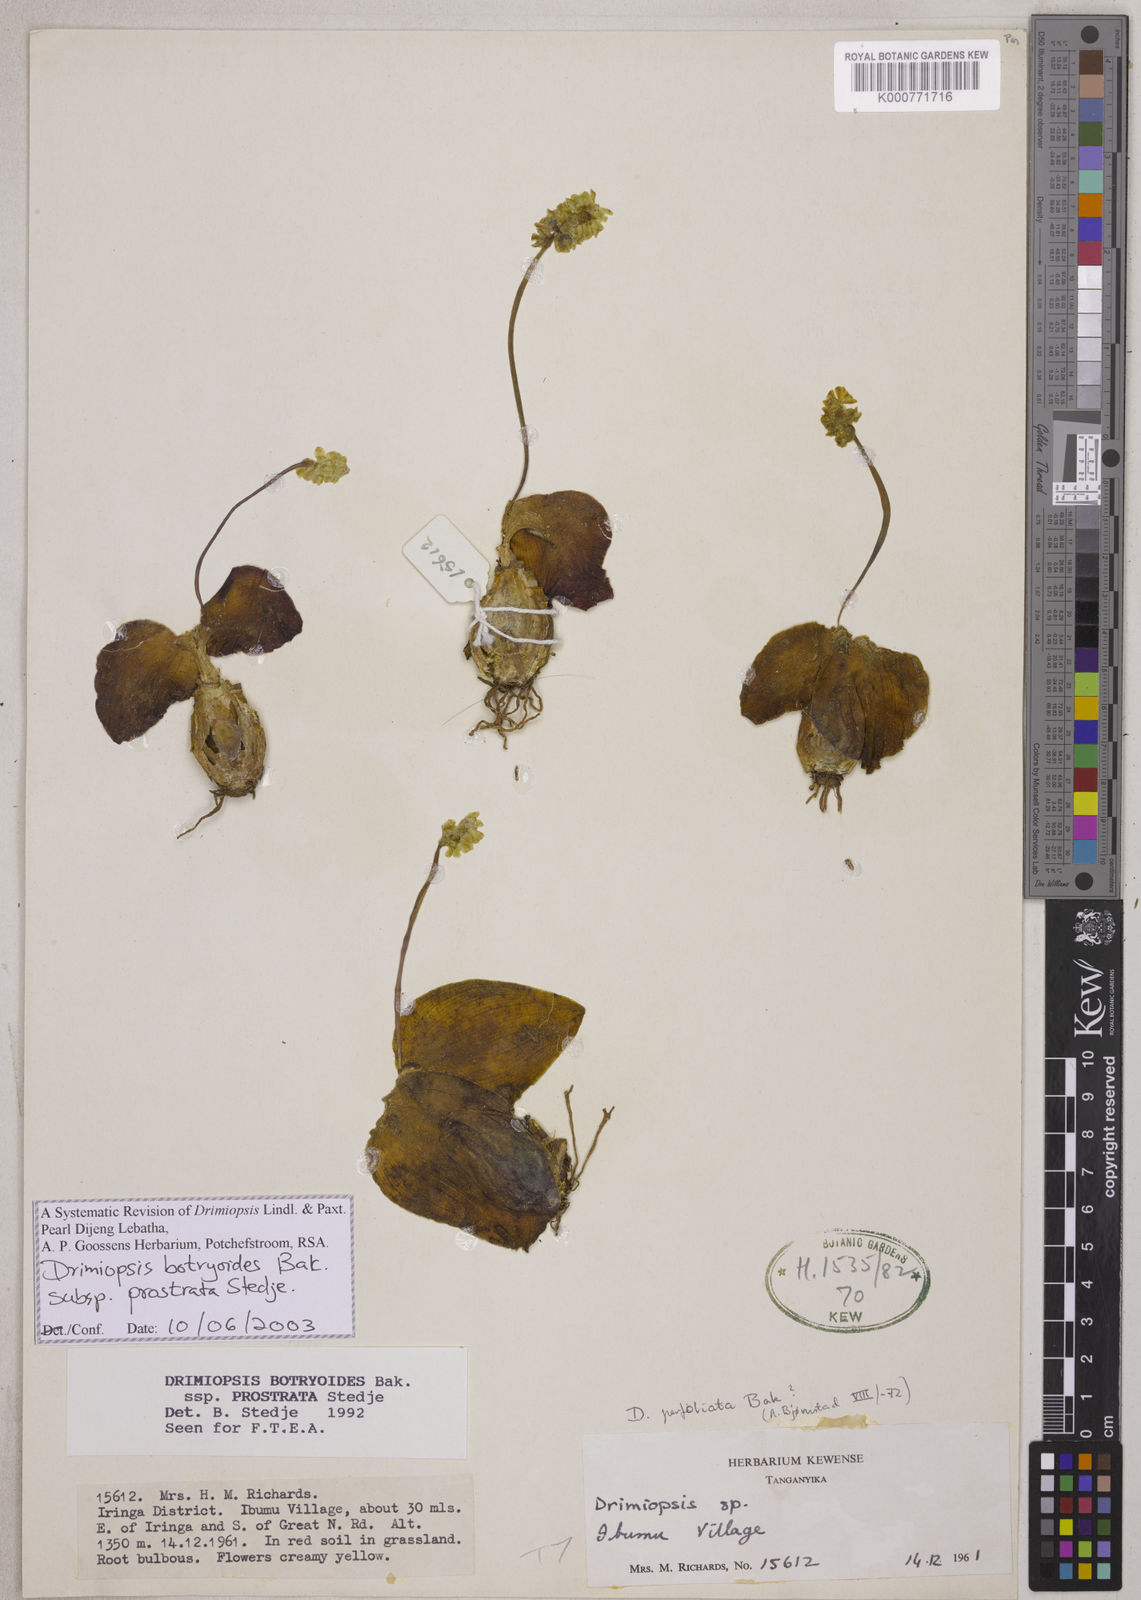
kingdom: Plantae
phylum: Tracheophyta
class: Liliopsida
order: Asparagales
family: Asparagaceae
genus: Drimiopsis
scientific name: Drimiopsis botryoides
